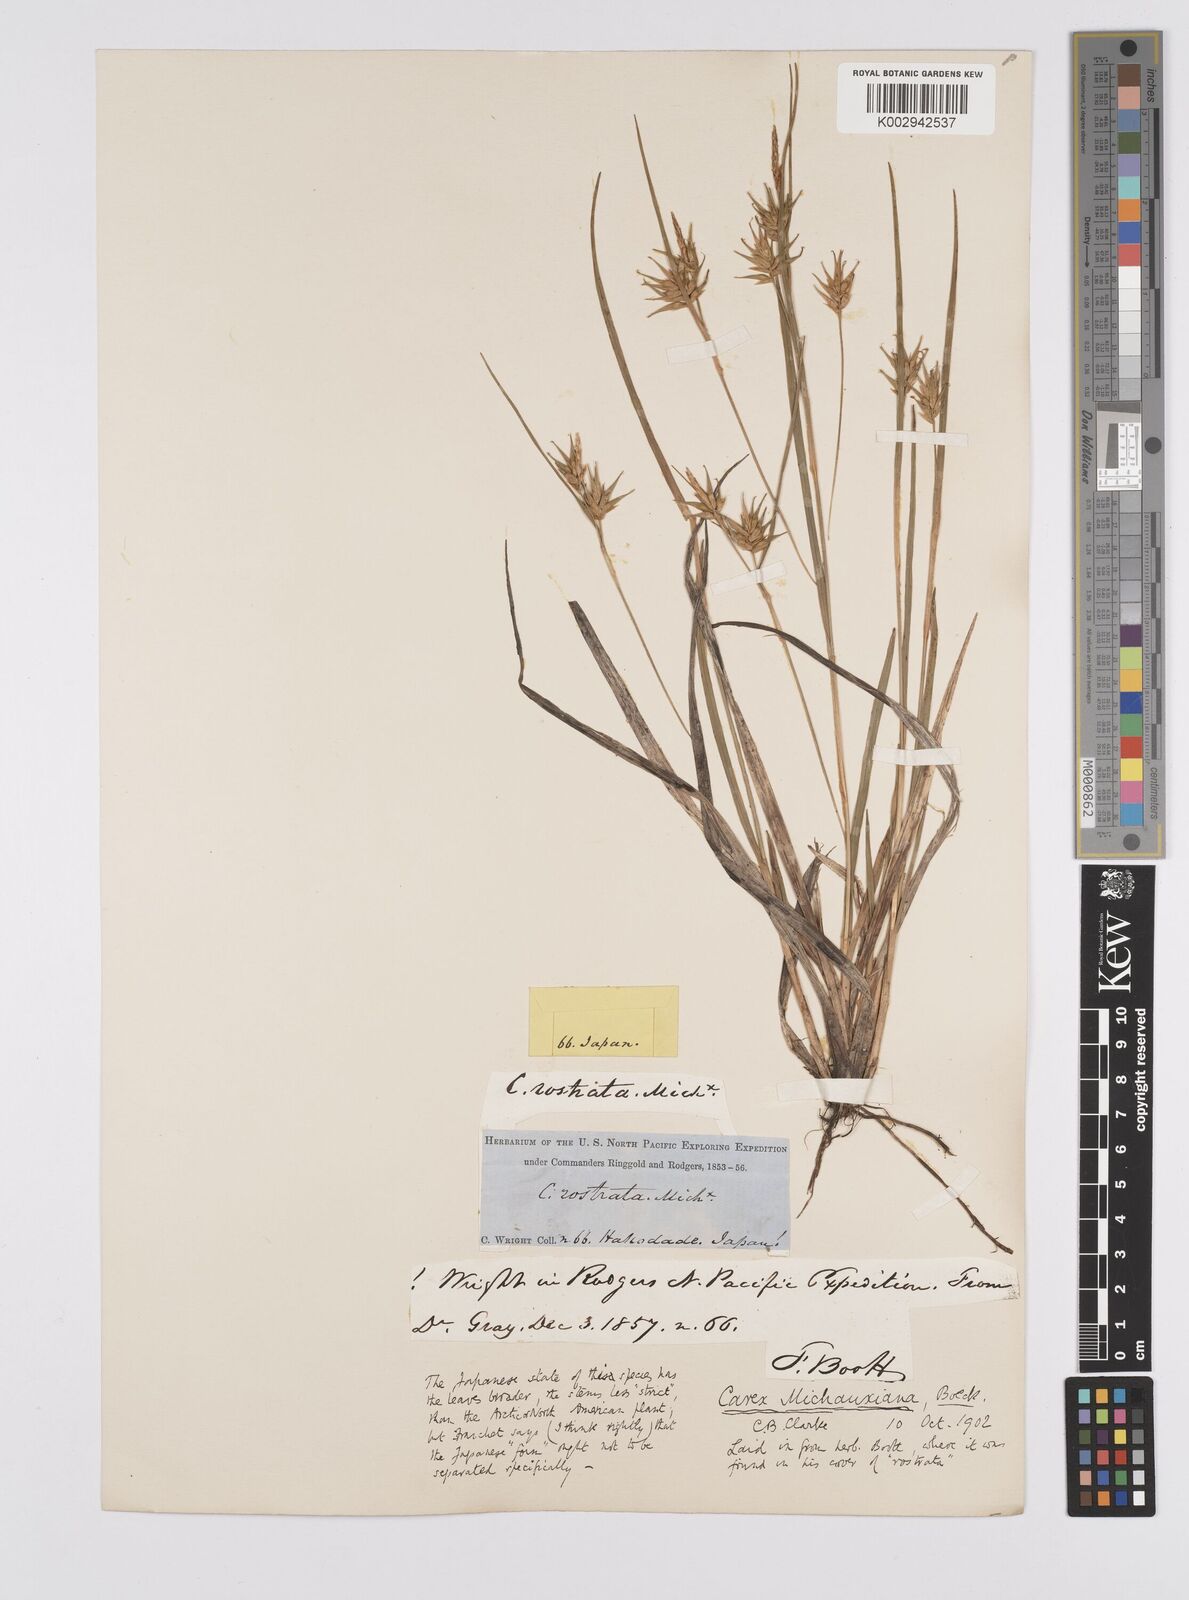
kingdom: Plantae
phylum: Tracheophyta
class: Liliopsida
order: Poales
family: Cyperaceae
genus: Carex
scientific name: Carex michauxiana
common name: Michaux's sedge
